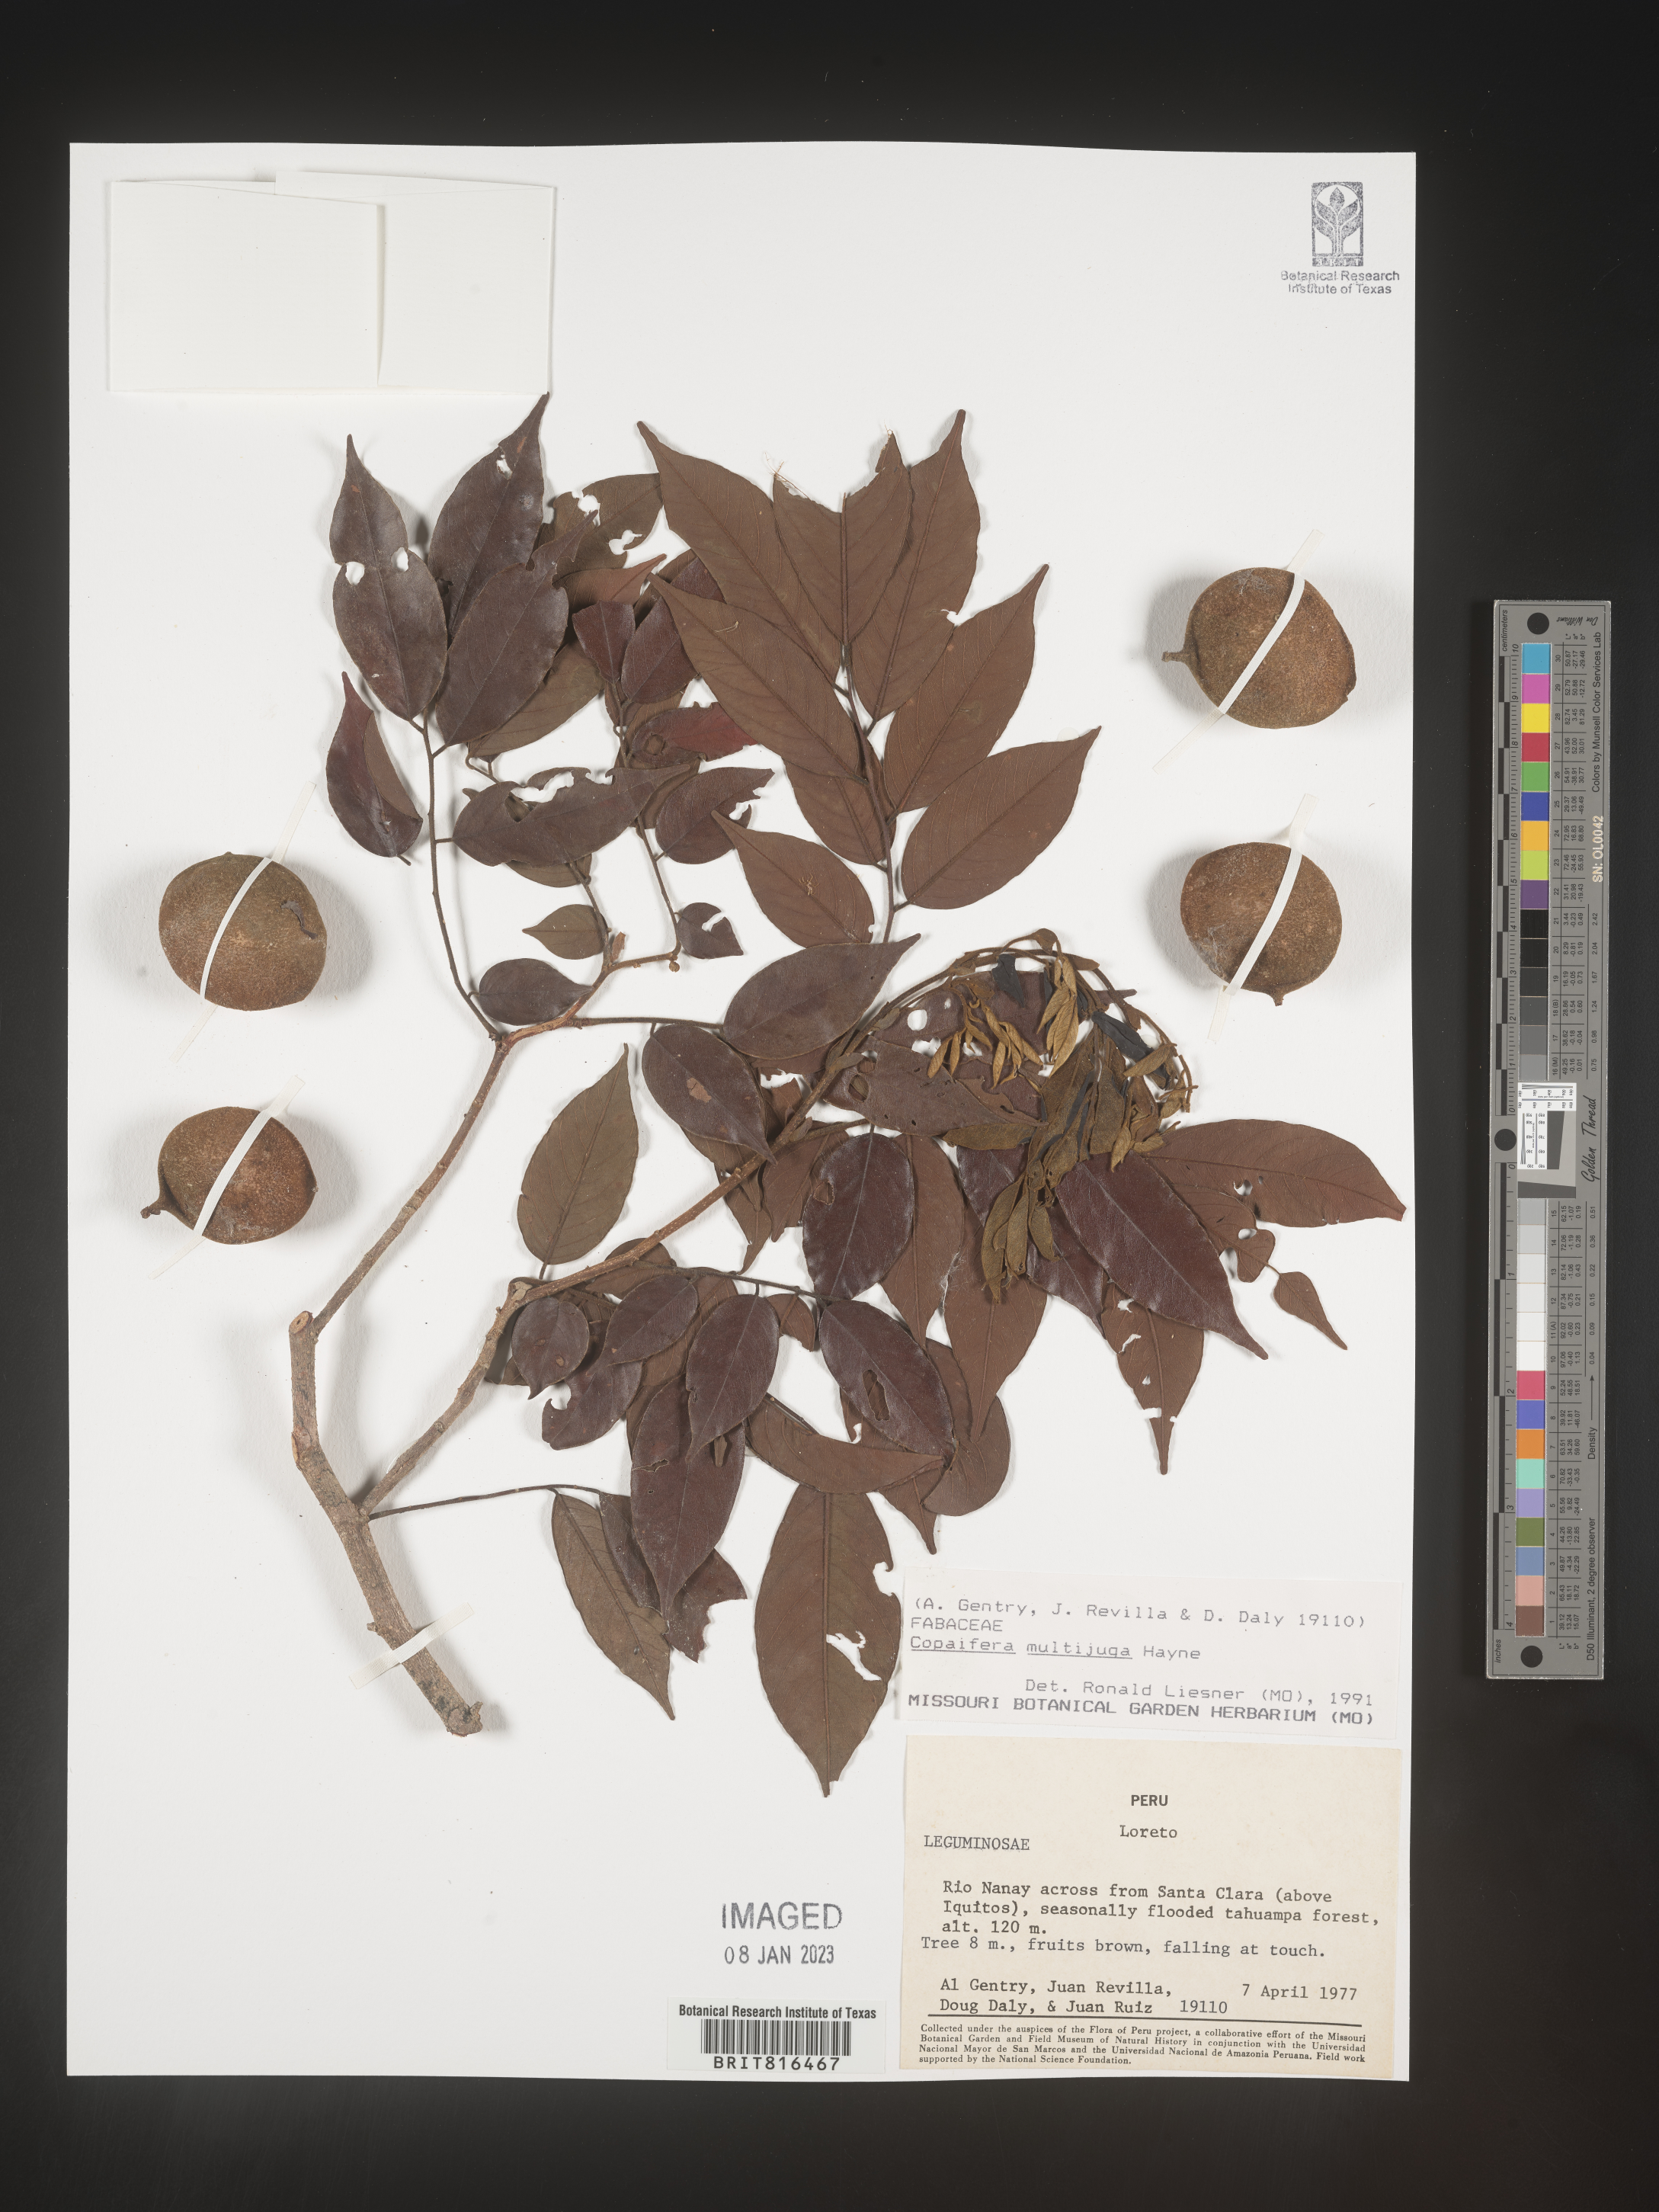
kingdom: Plantae
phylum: Tracheophyta
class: Magnoliopsida
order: Fabales
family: Fabaceae
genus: Copaifera
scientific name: Copaifera
